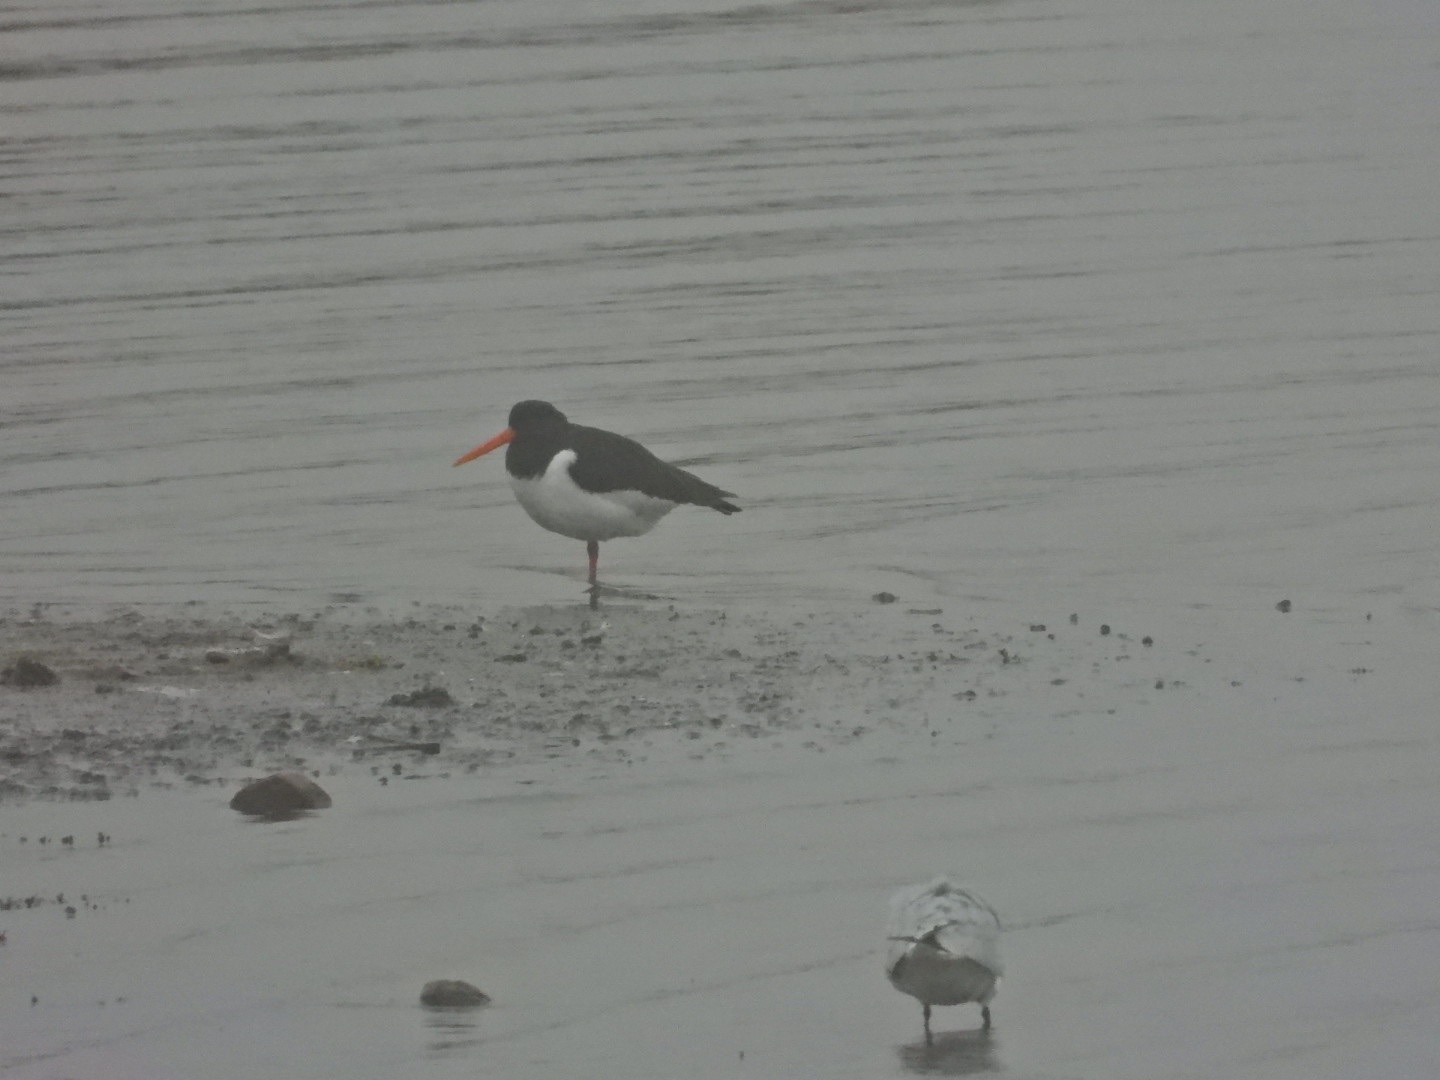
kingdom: Animalia
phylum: Chordata
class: Aves
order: Charadriiformes
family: Haematopodidae
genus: Haematopus
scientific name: Haematopus ostralegus
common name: Strandskade
